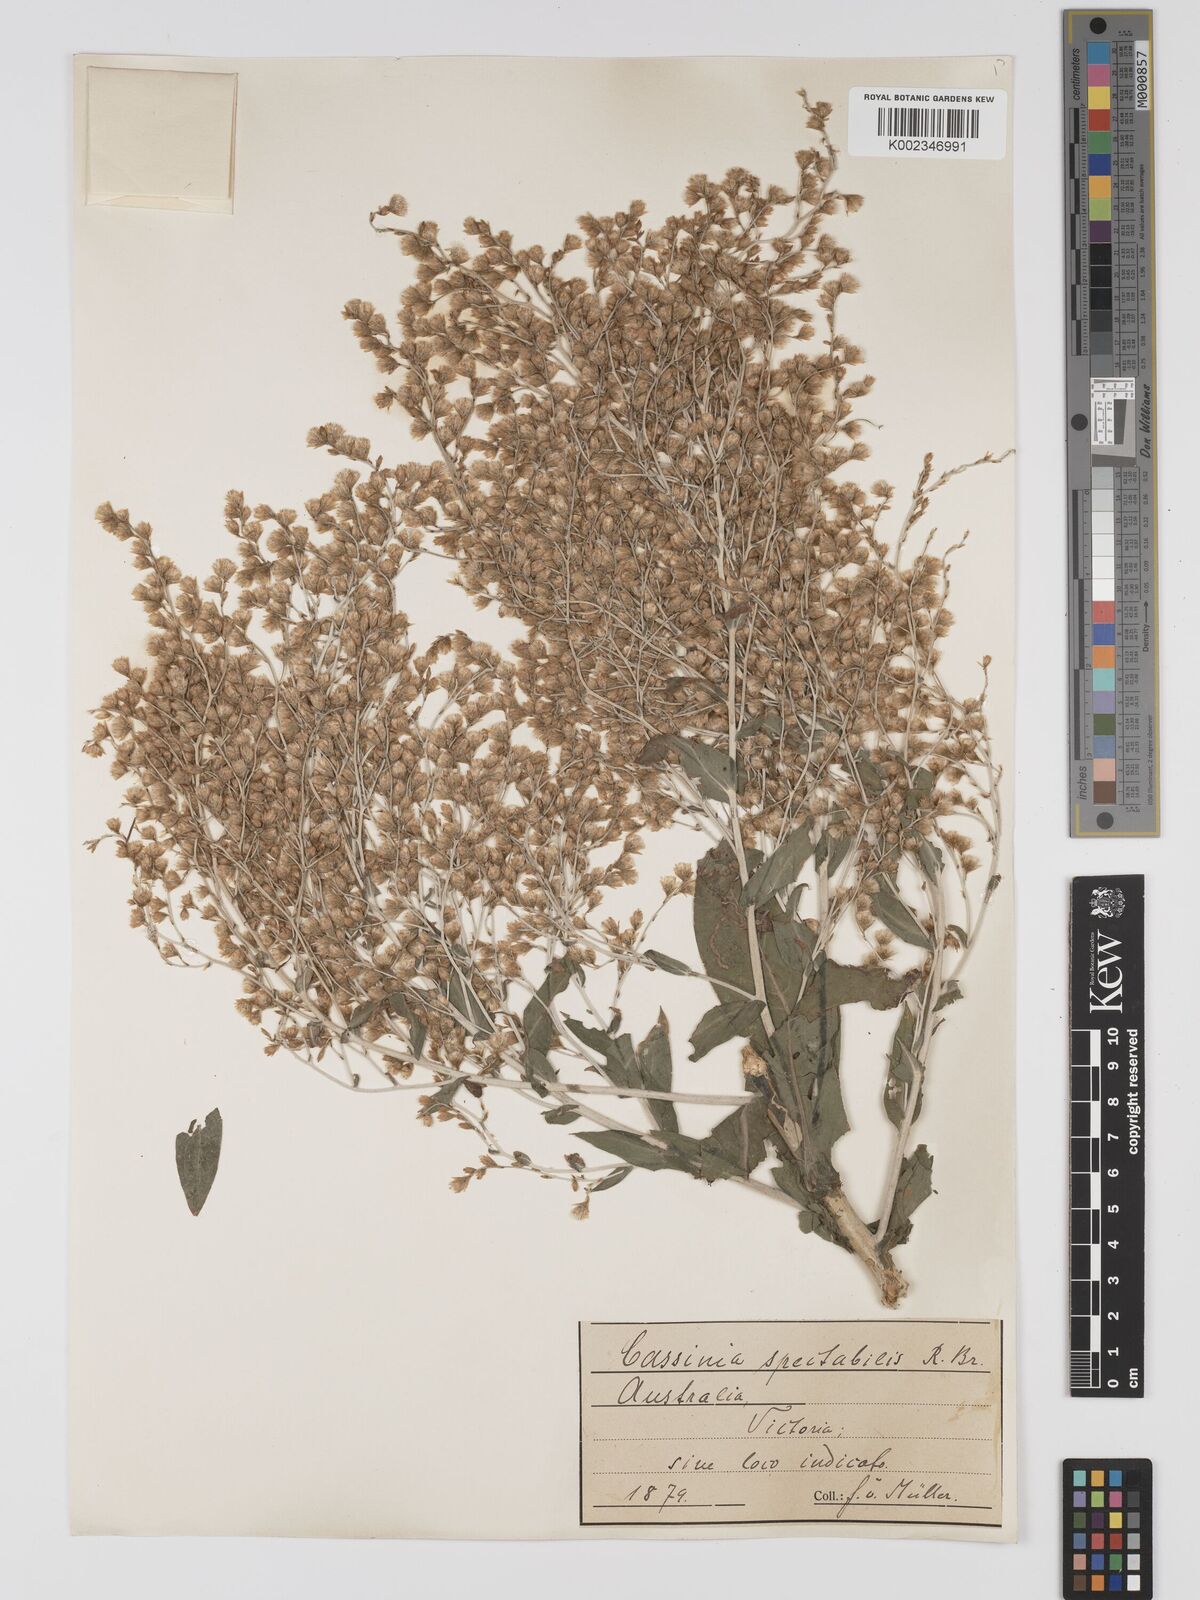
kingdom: Plantae
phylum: Tracheophyta
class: Magnoliopsida
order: Asterales
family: Asteraceae
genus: Apalochlamys
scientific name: Apalochlamys spectabilis
